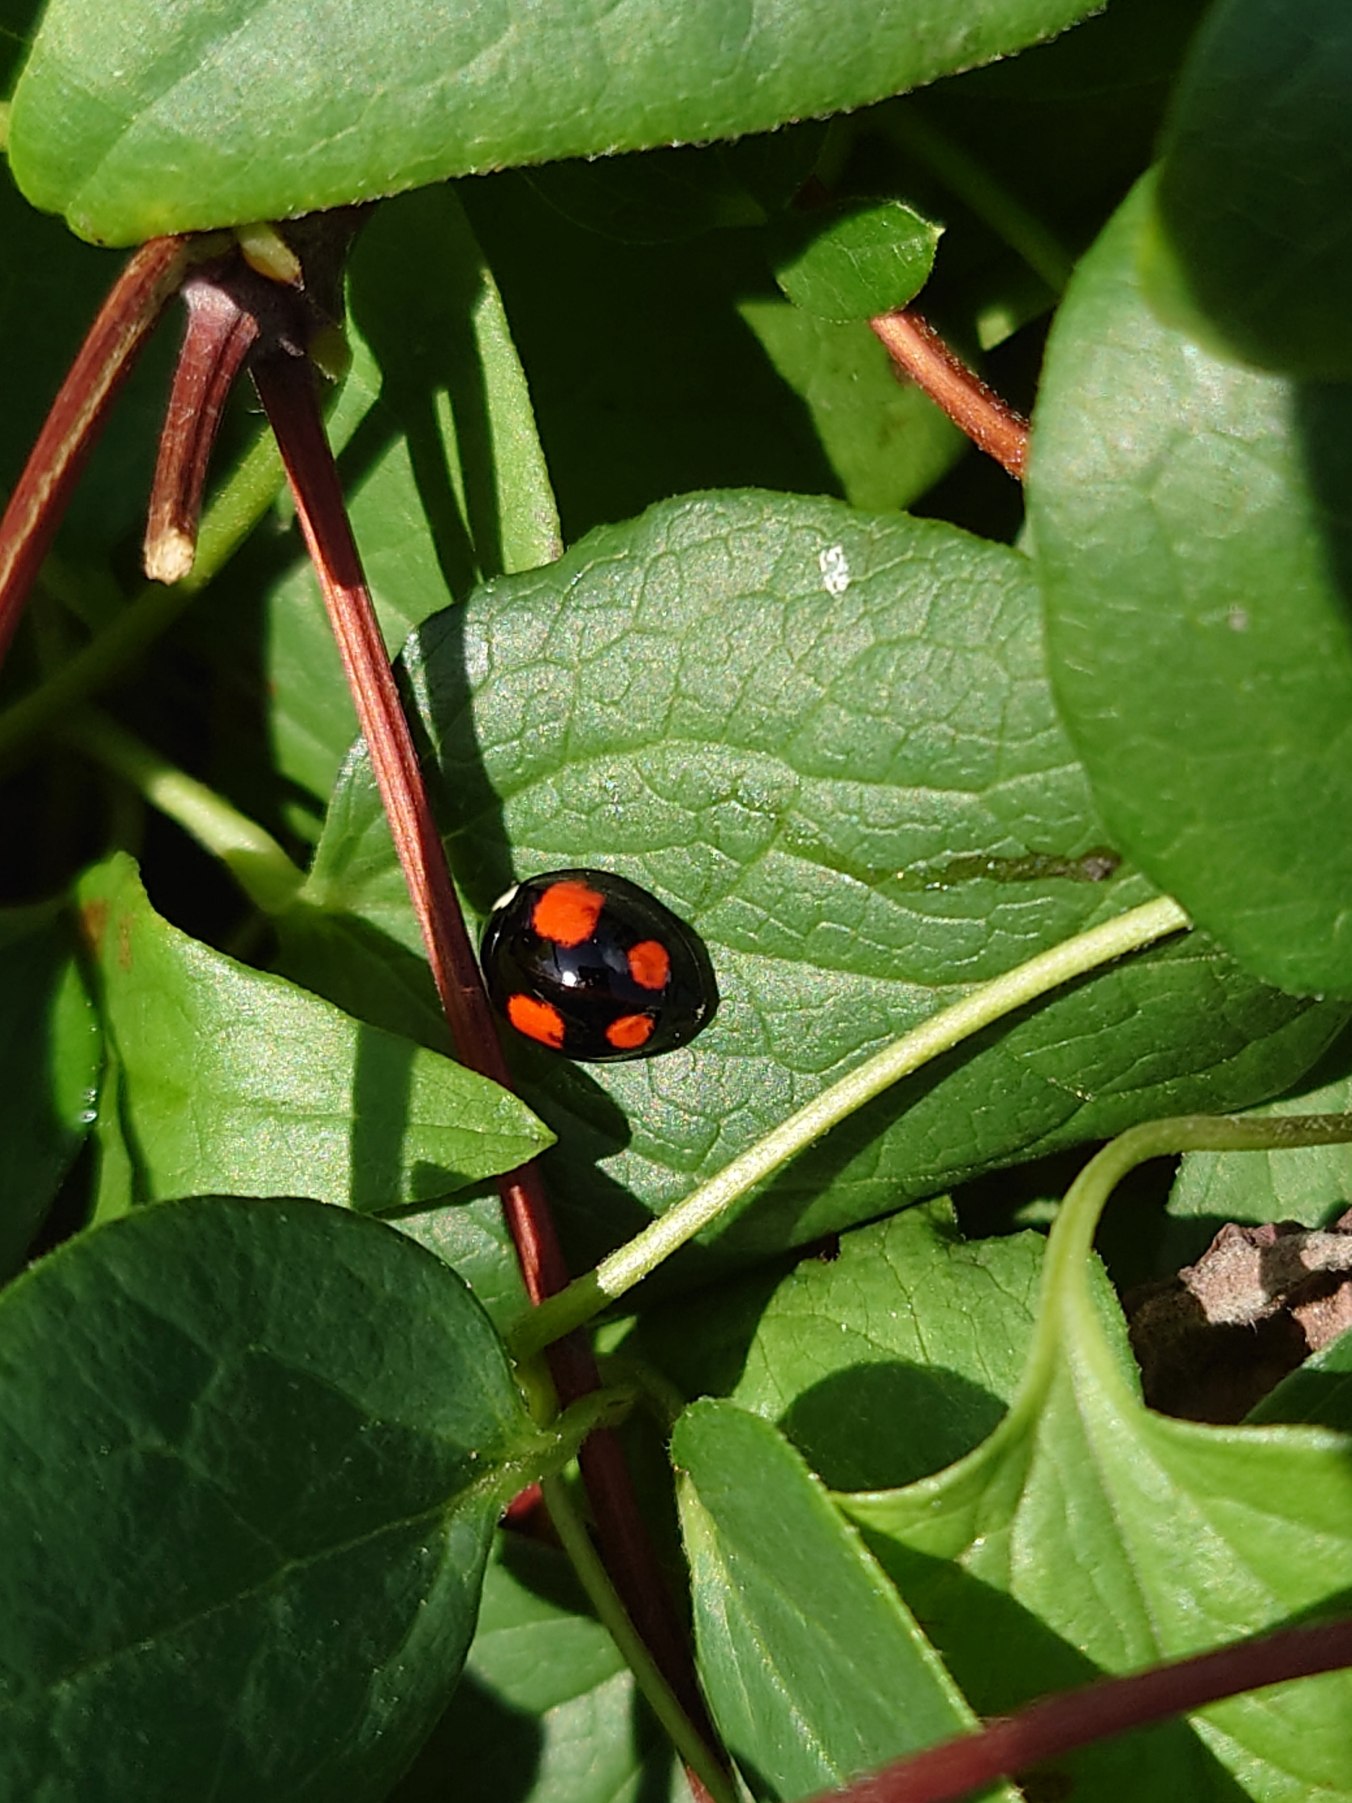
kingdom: Animalia
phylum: Arthropoda
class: Insecta
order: Coleoptera
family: Coccinellidae
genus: Harmonia
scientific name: Harmonia axyridis
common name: Harlekinmariehøne
